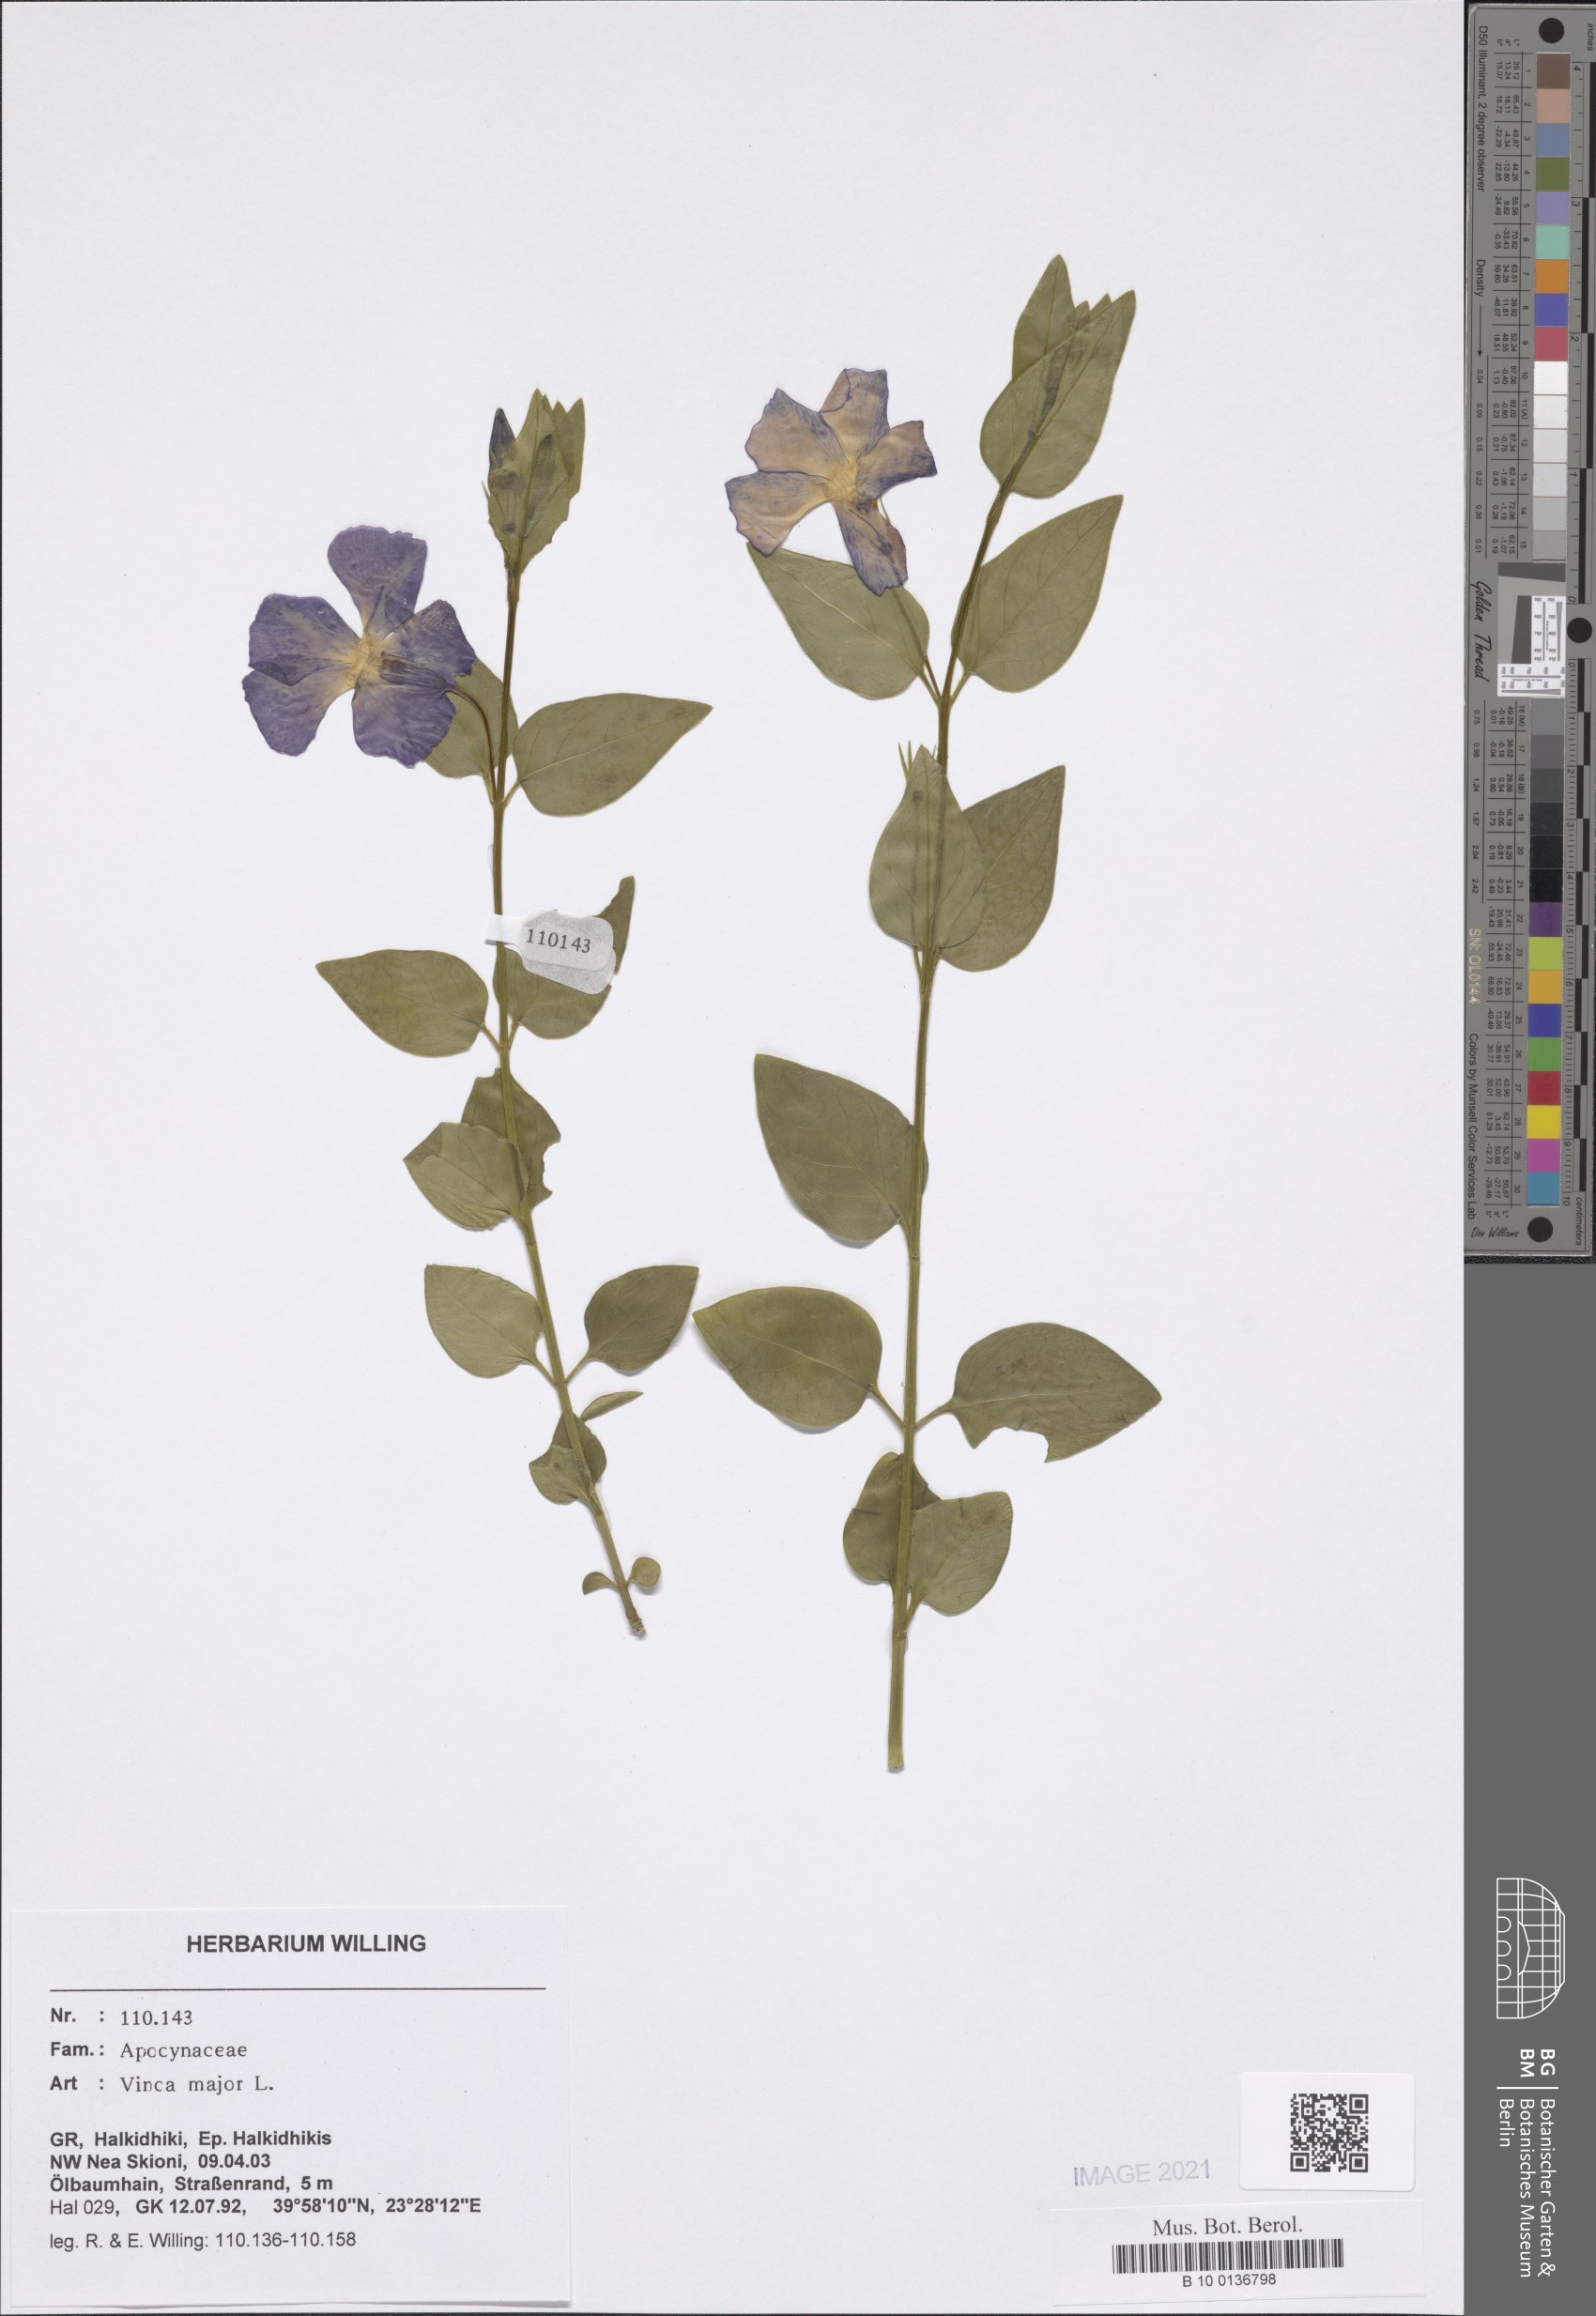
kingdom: Plantae
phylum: Tracheophyta
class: Magnoliopsida
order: Gentianales
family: Apocynaceae
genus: Vinca
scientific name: Vinca major
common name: Greater periwinkle
